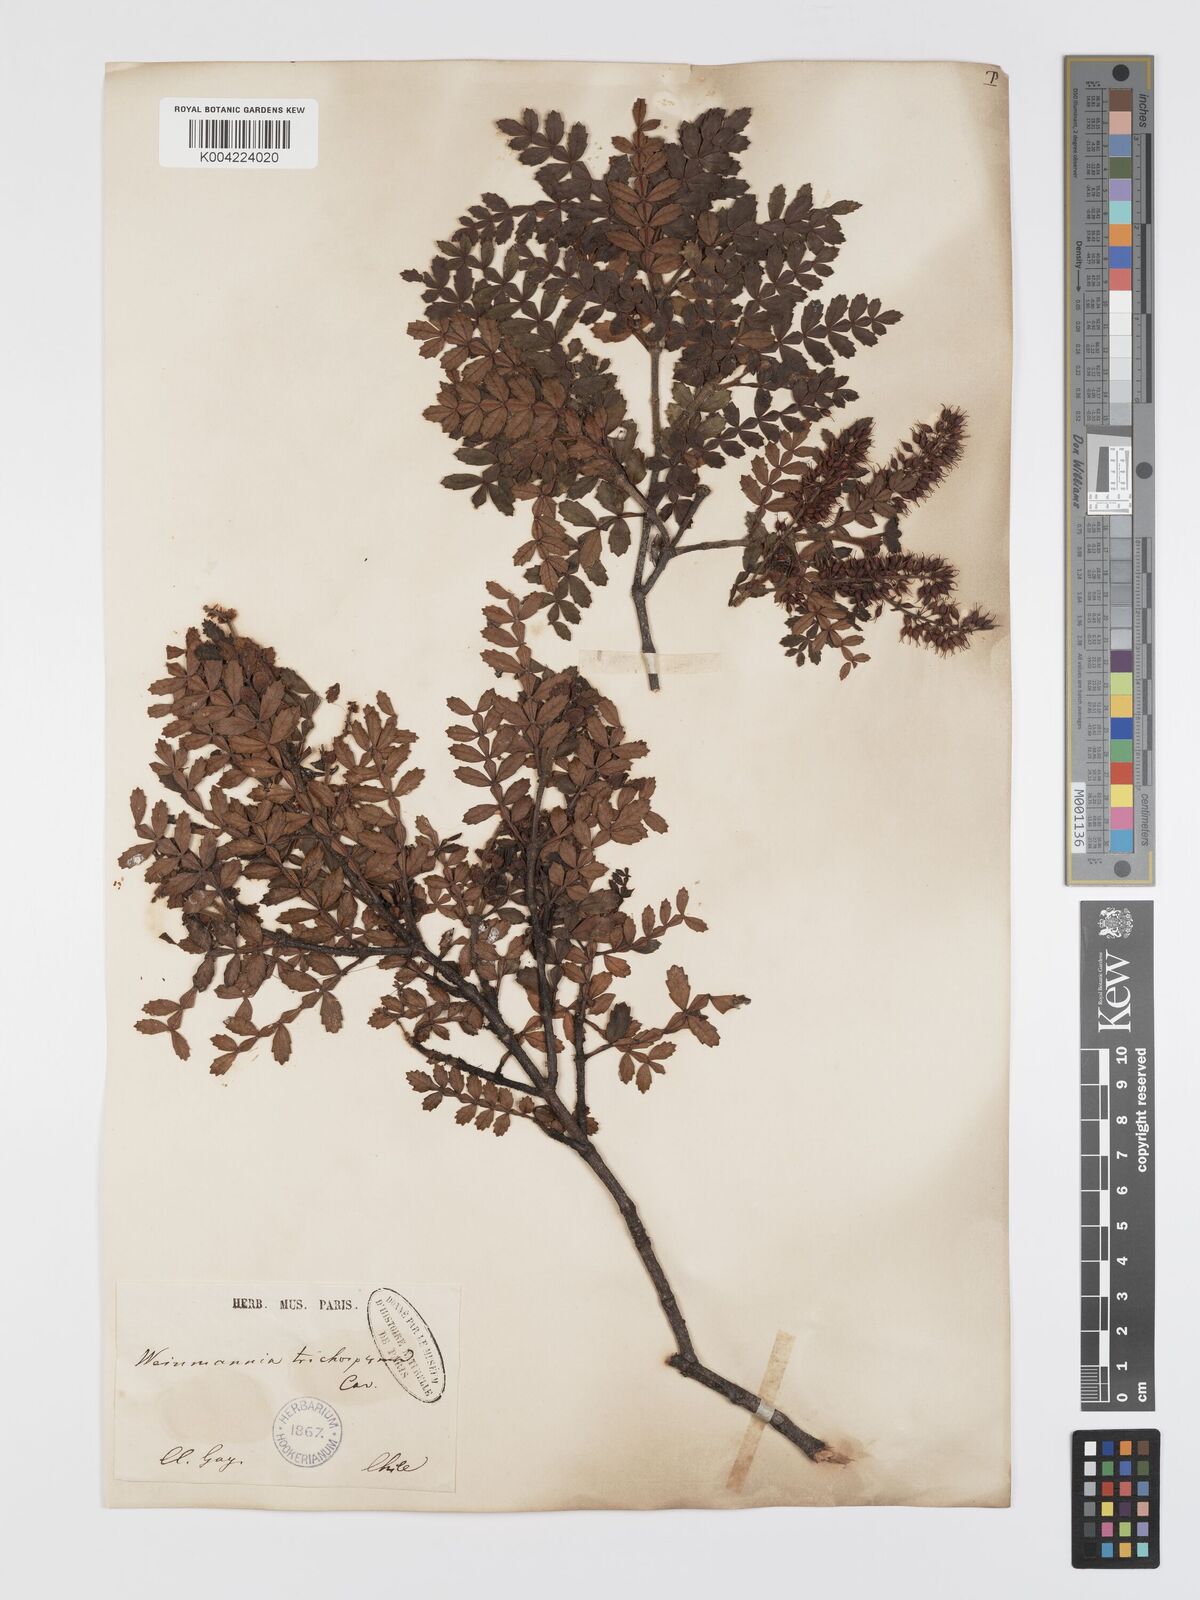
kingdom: Plantae
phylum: Tracheophyta
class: Magnoliopsida
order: Oxalidales
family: Cunoniaceae
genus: Weinmannia
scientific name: Weinmannia trichosperma
